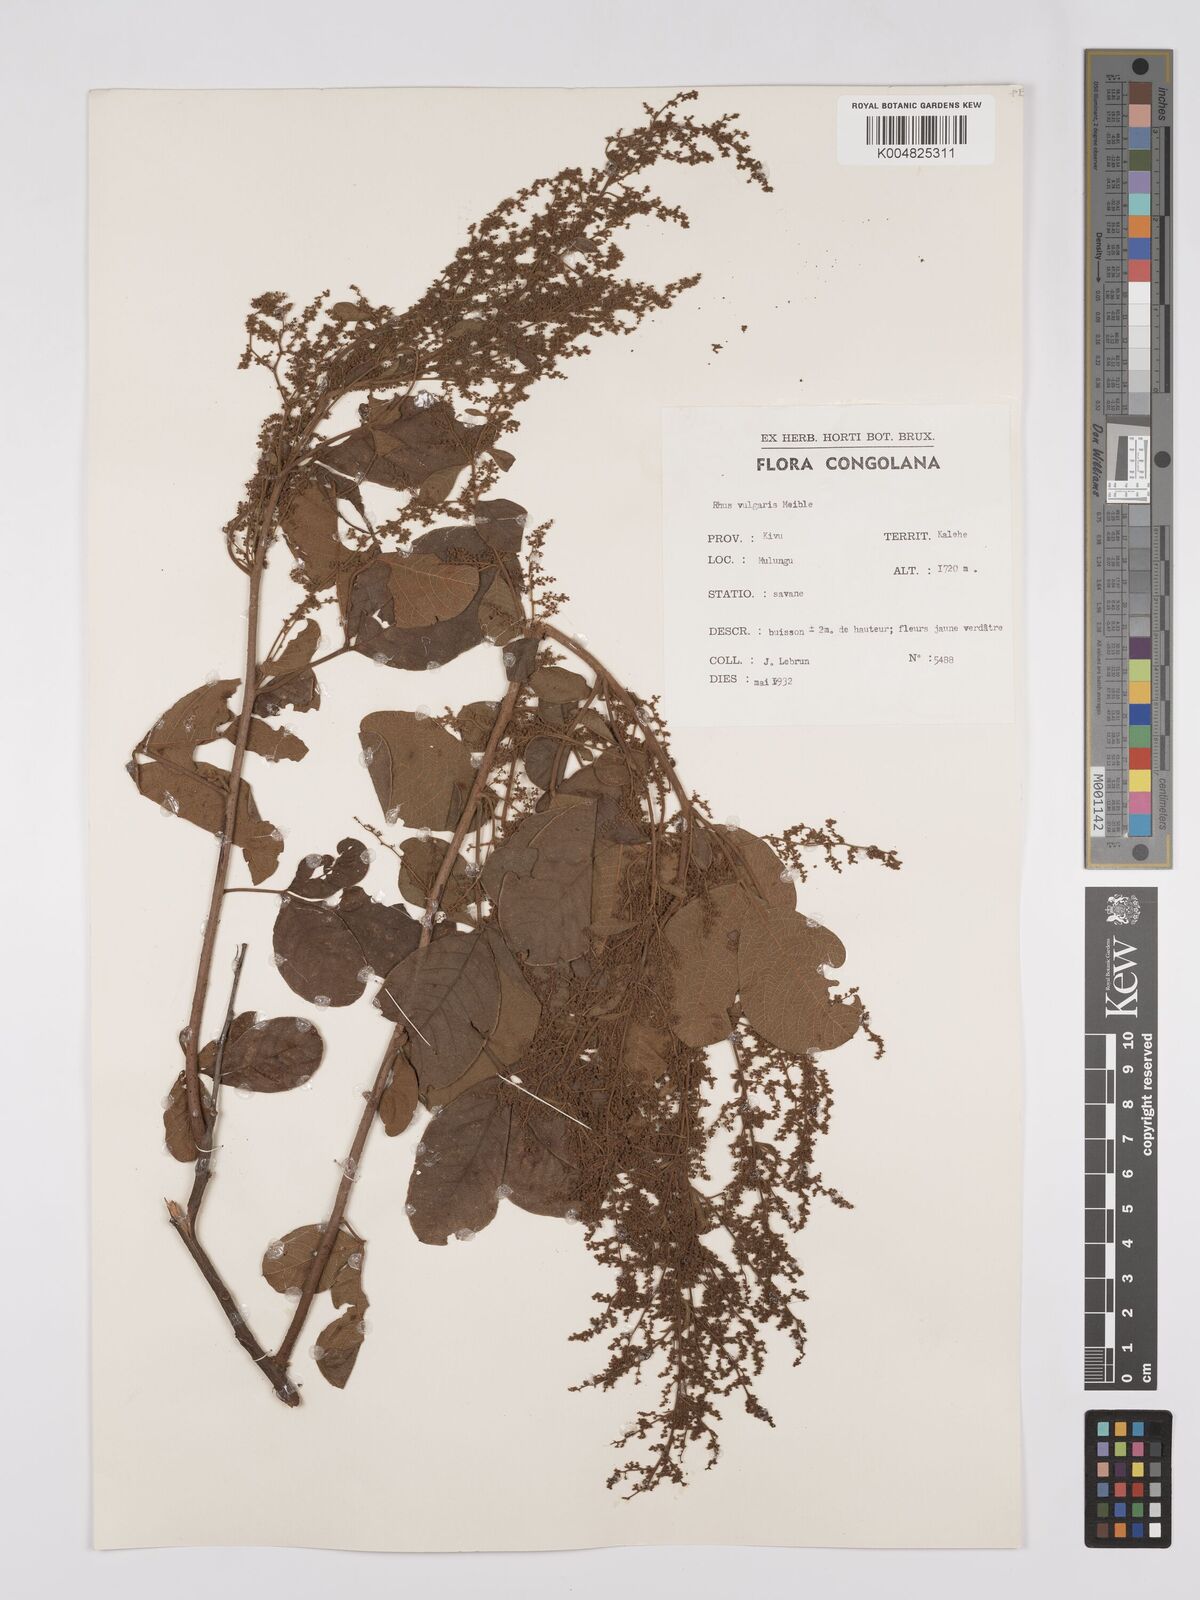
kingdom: Plantae
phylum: Tracheophyta
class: Magnoliopsida
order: Sapindales
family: Anacardiaceae
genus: Searsia
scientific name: Searsia pyroides
